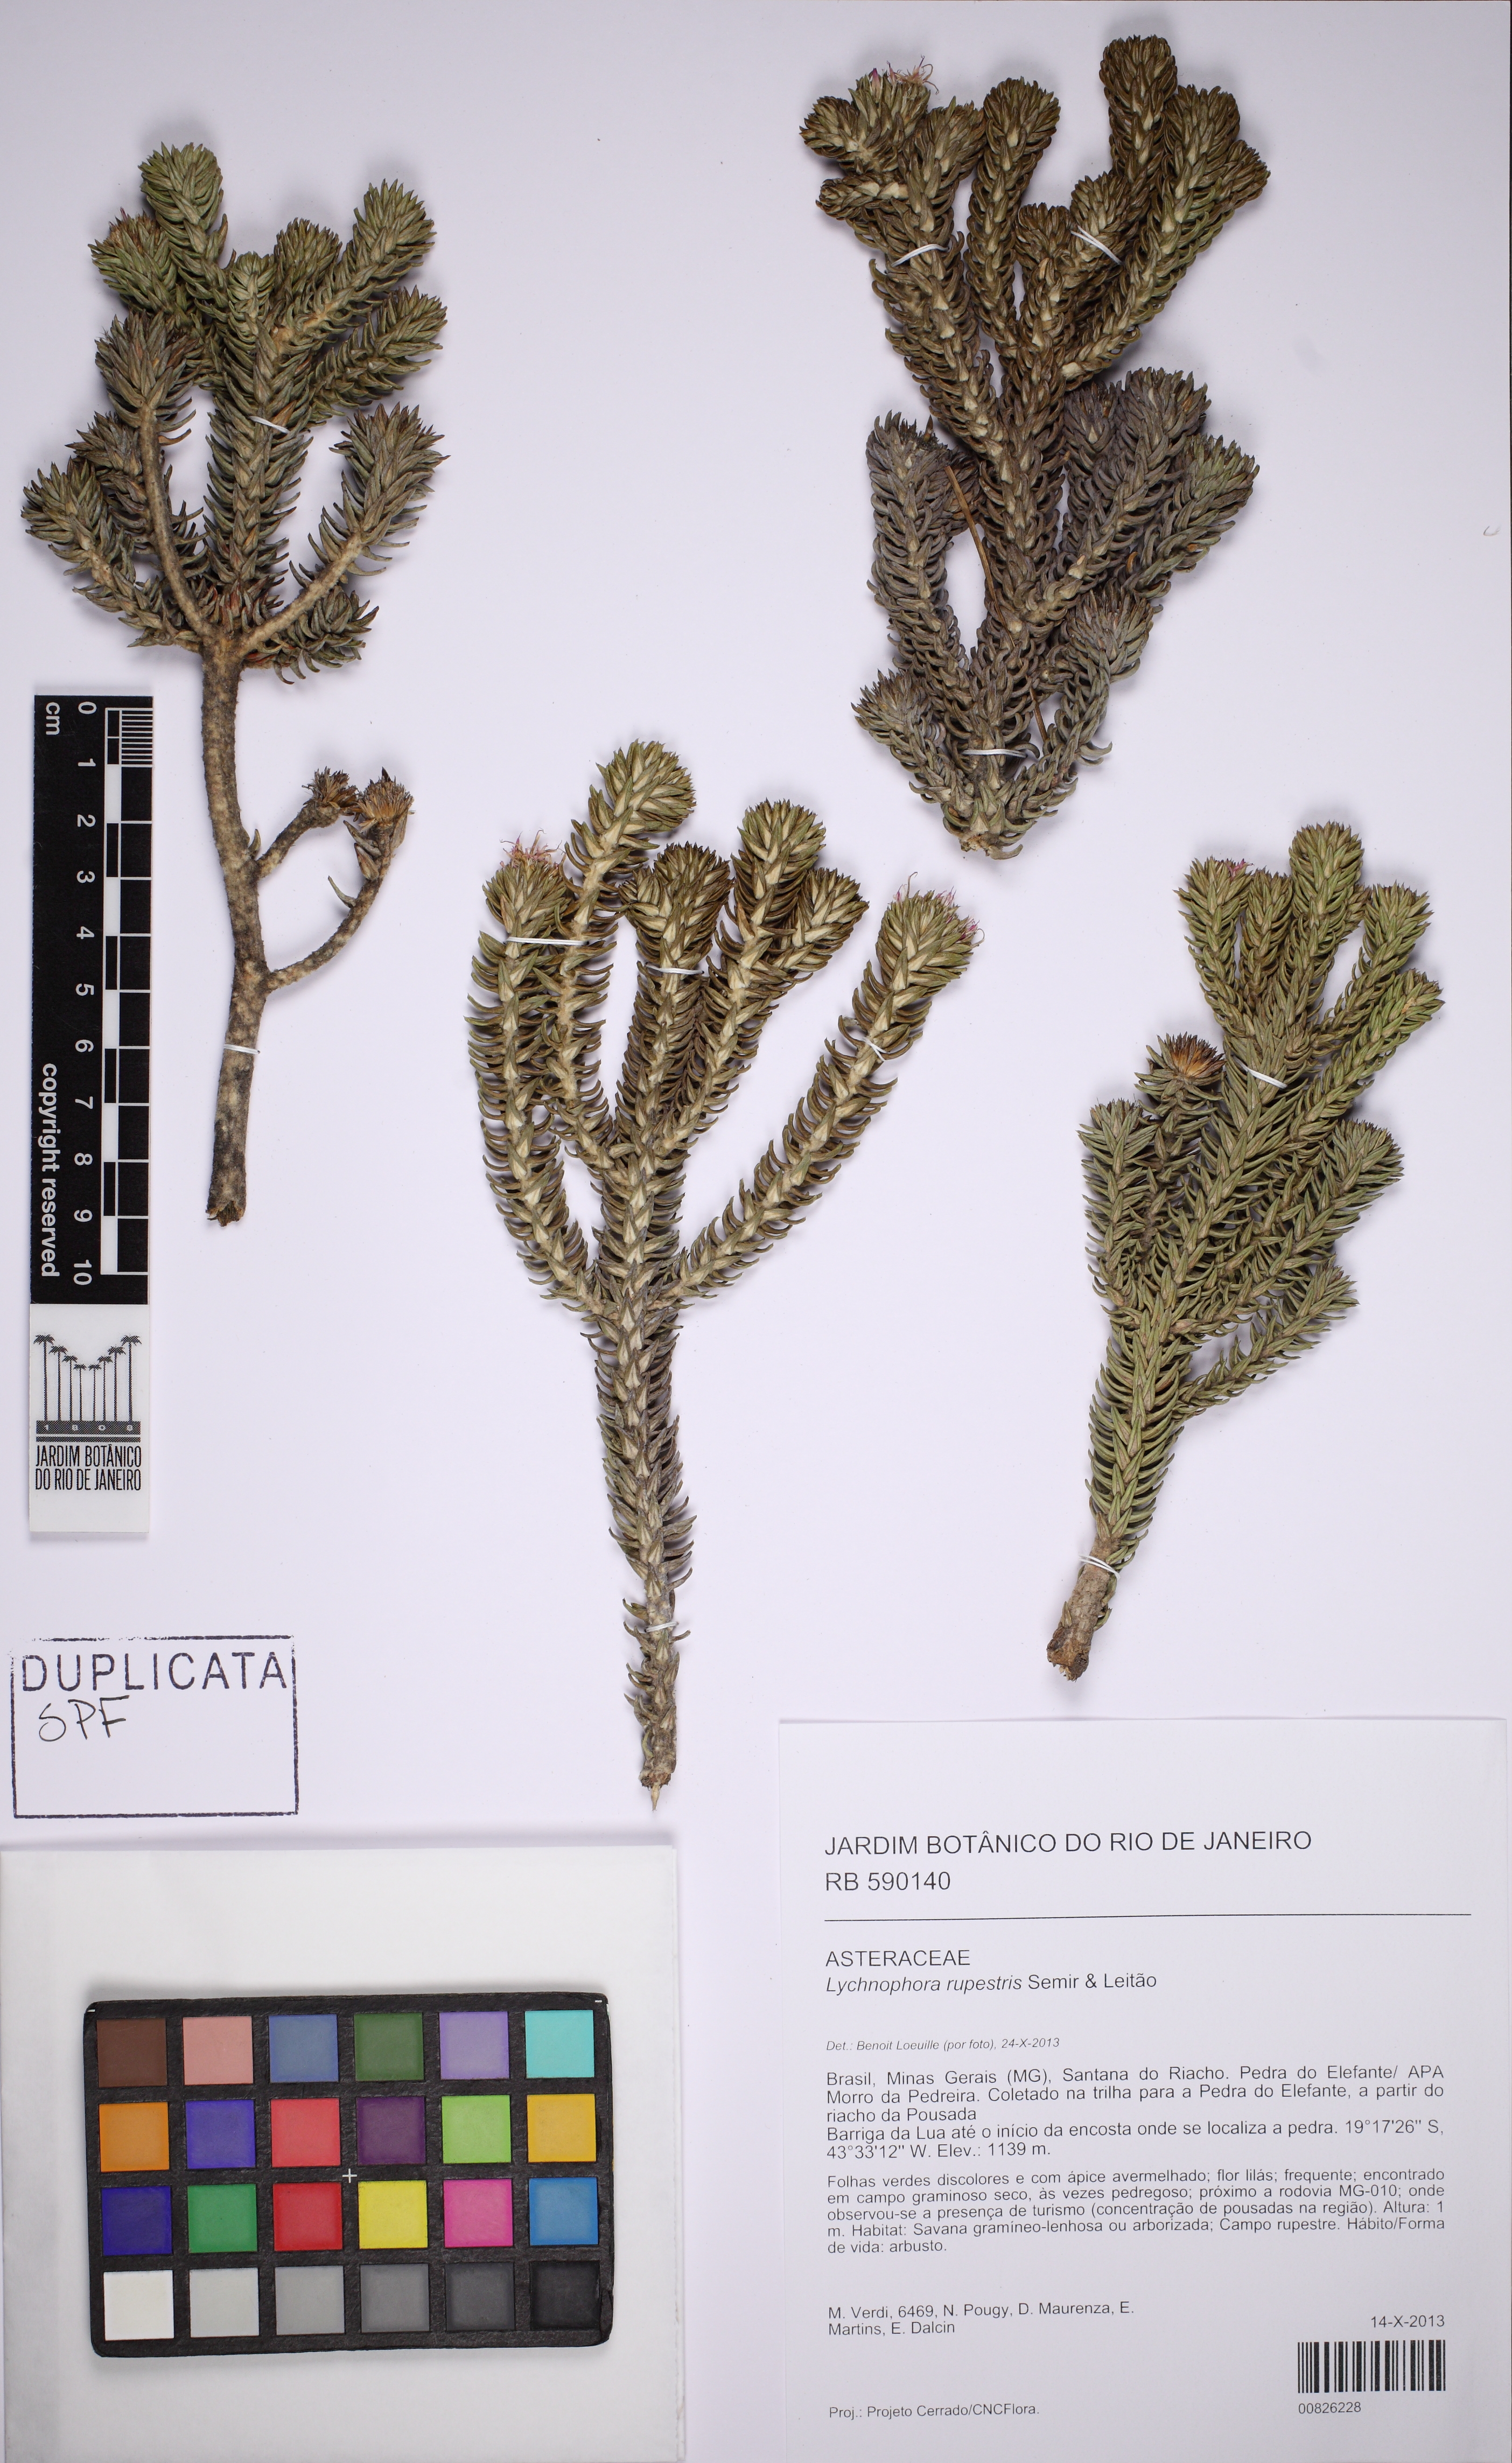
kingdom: Plantae
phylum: Tracheophyta
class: Magnoliopsida
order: Asterales
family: Asteraceae
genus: Lychnophora
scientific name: Lychnophora rupestris
